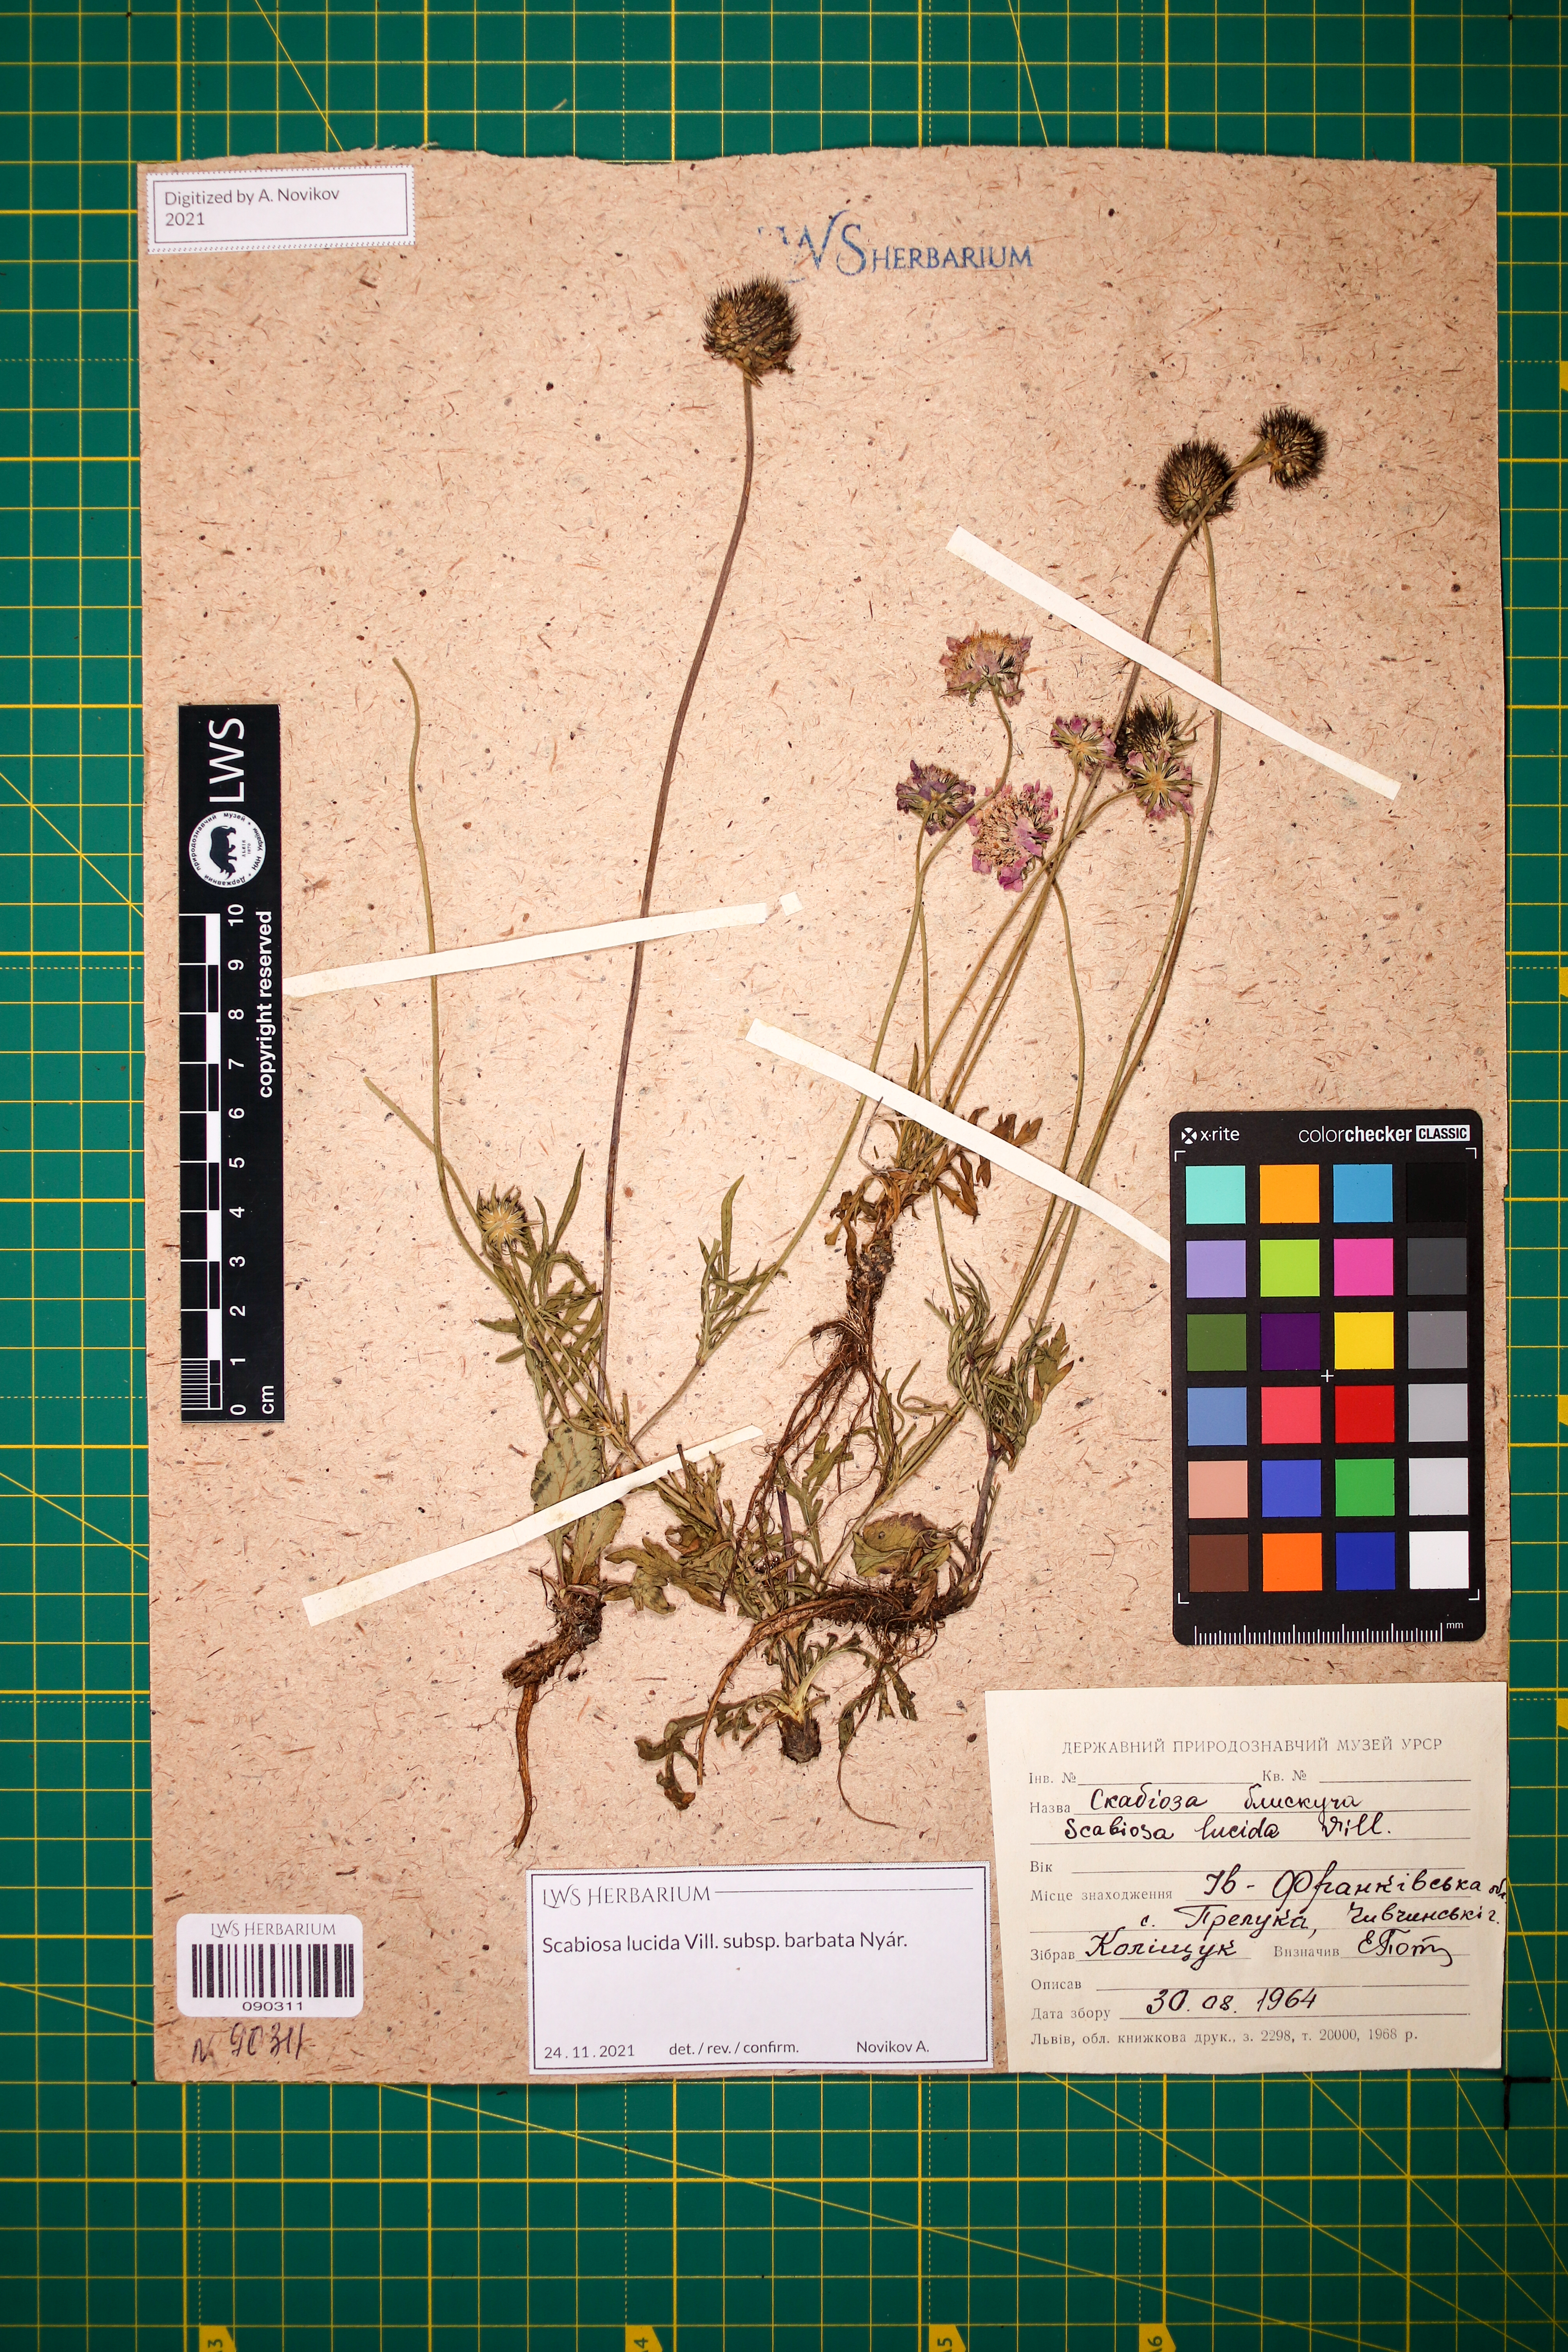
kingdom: Plantae
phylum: Tracheophyta
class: Magnoliopsida
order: Dipsacales
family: Caprifoliaceae
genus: Scabiosa
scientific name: Scabiosa lucida
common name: Shining scabious
